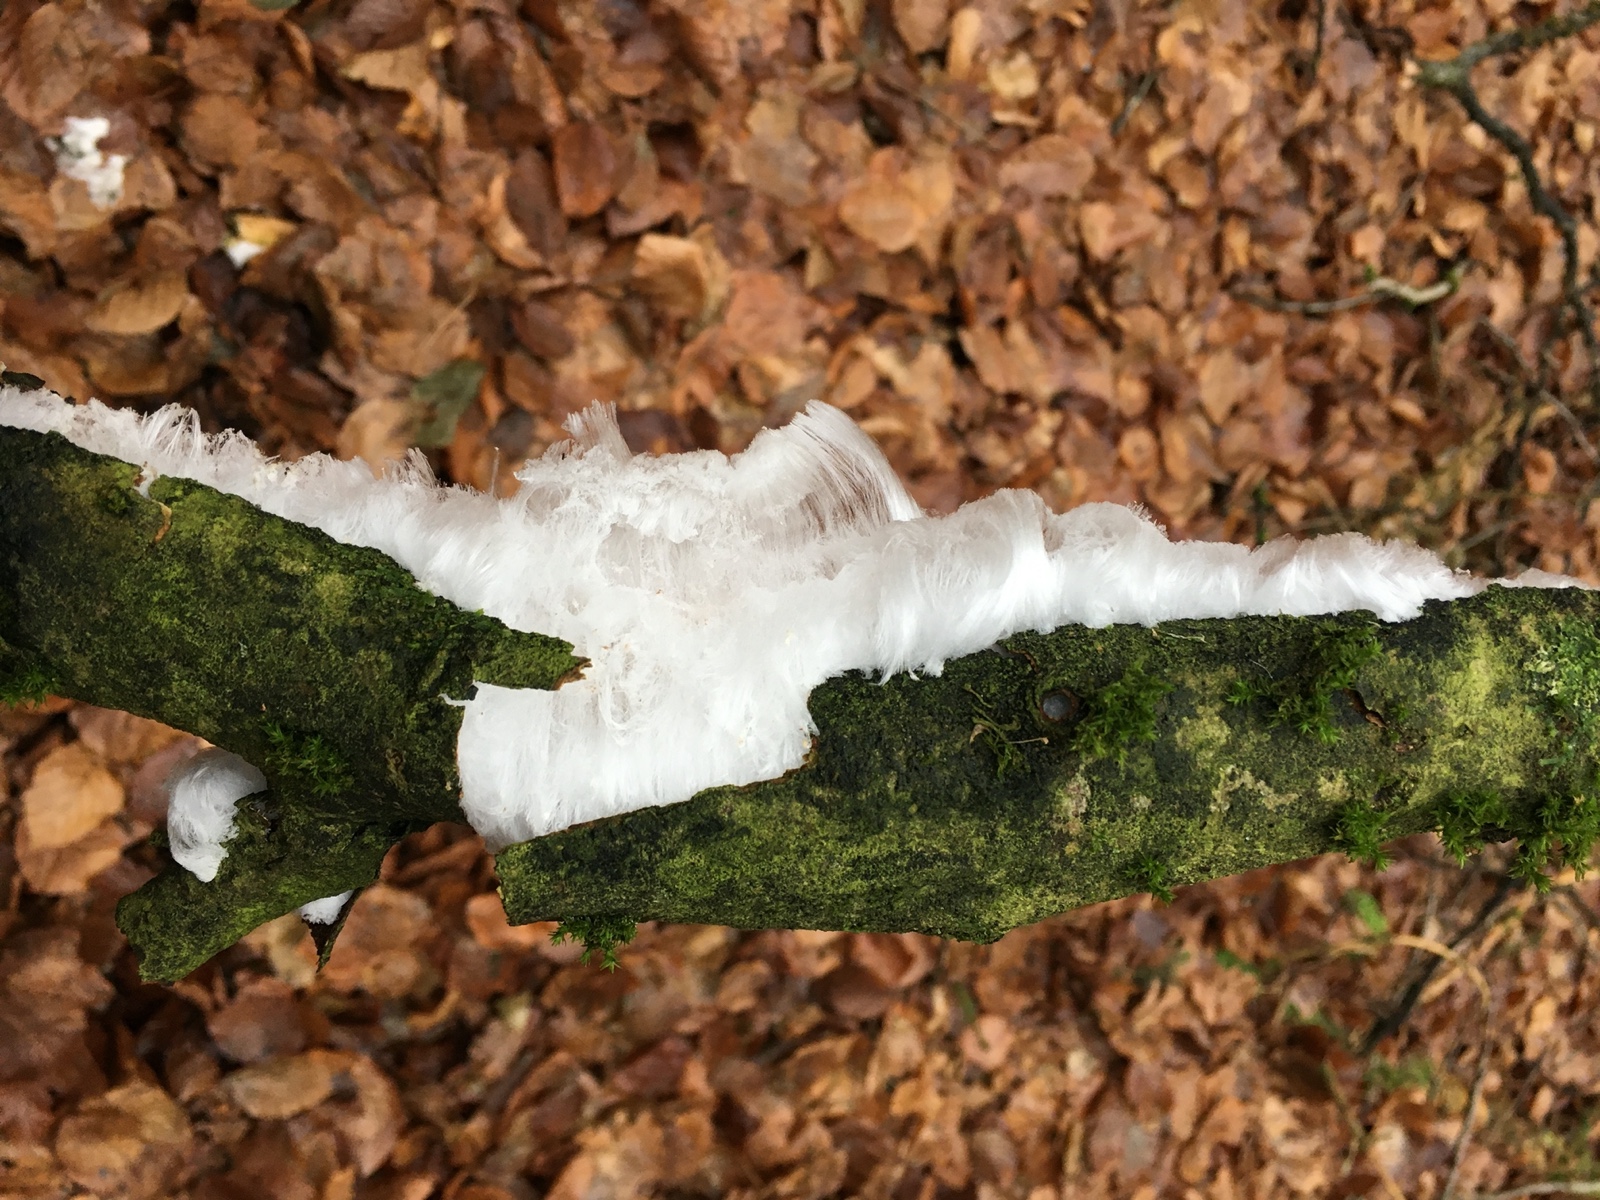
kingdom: Fungi
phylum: Basidiomycota
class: Tremellomycetes
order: Tremellales
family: Exidiaceae
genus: Exidiopsis
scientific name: Exidiopsis effusa
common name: smuk bævrehinde
